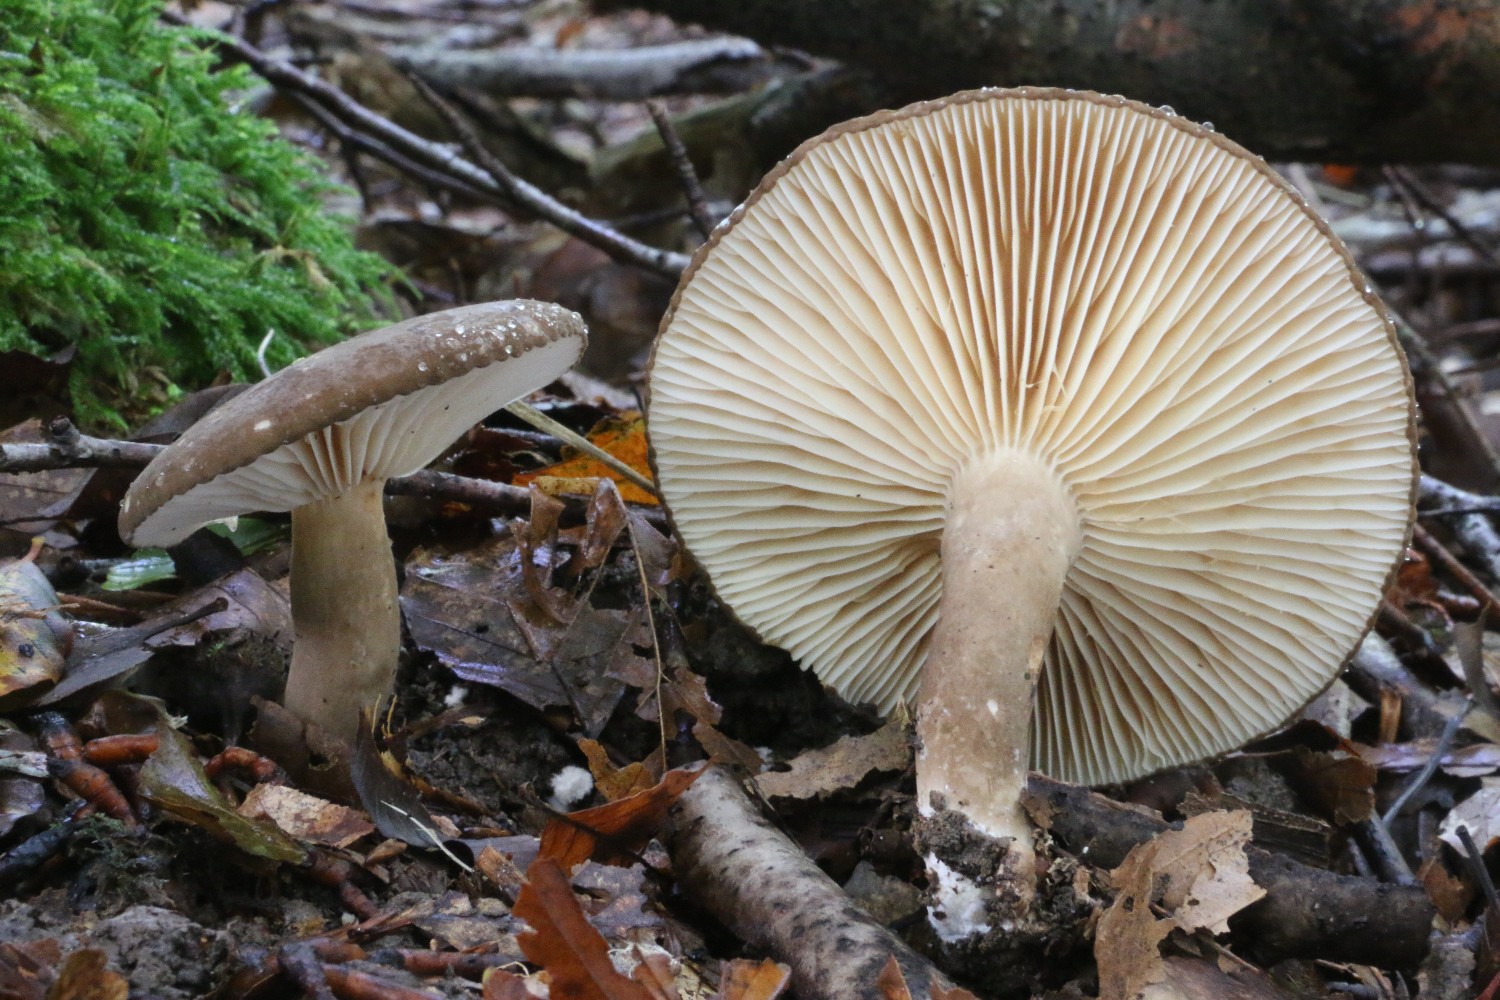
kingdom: Fungi
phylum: Basidiomycota
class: Agaricomycetes
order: Russulales
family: Russulaceae
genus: Lactarius
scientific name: Lactarius romagnesii
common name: fjernbladet mælkehat
